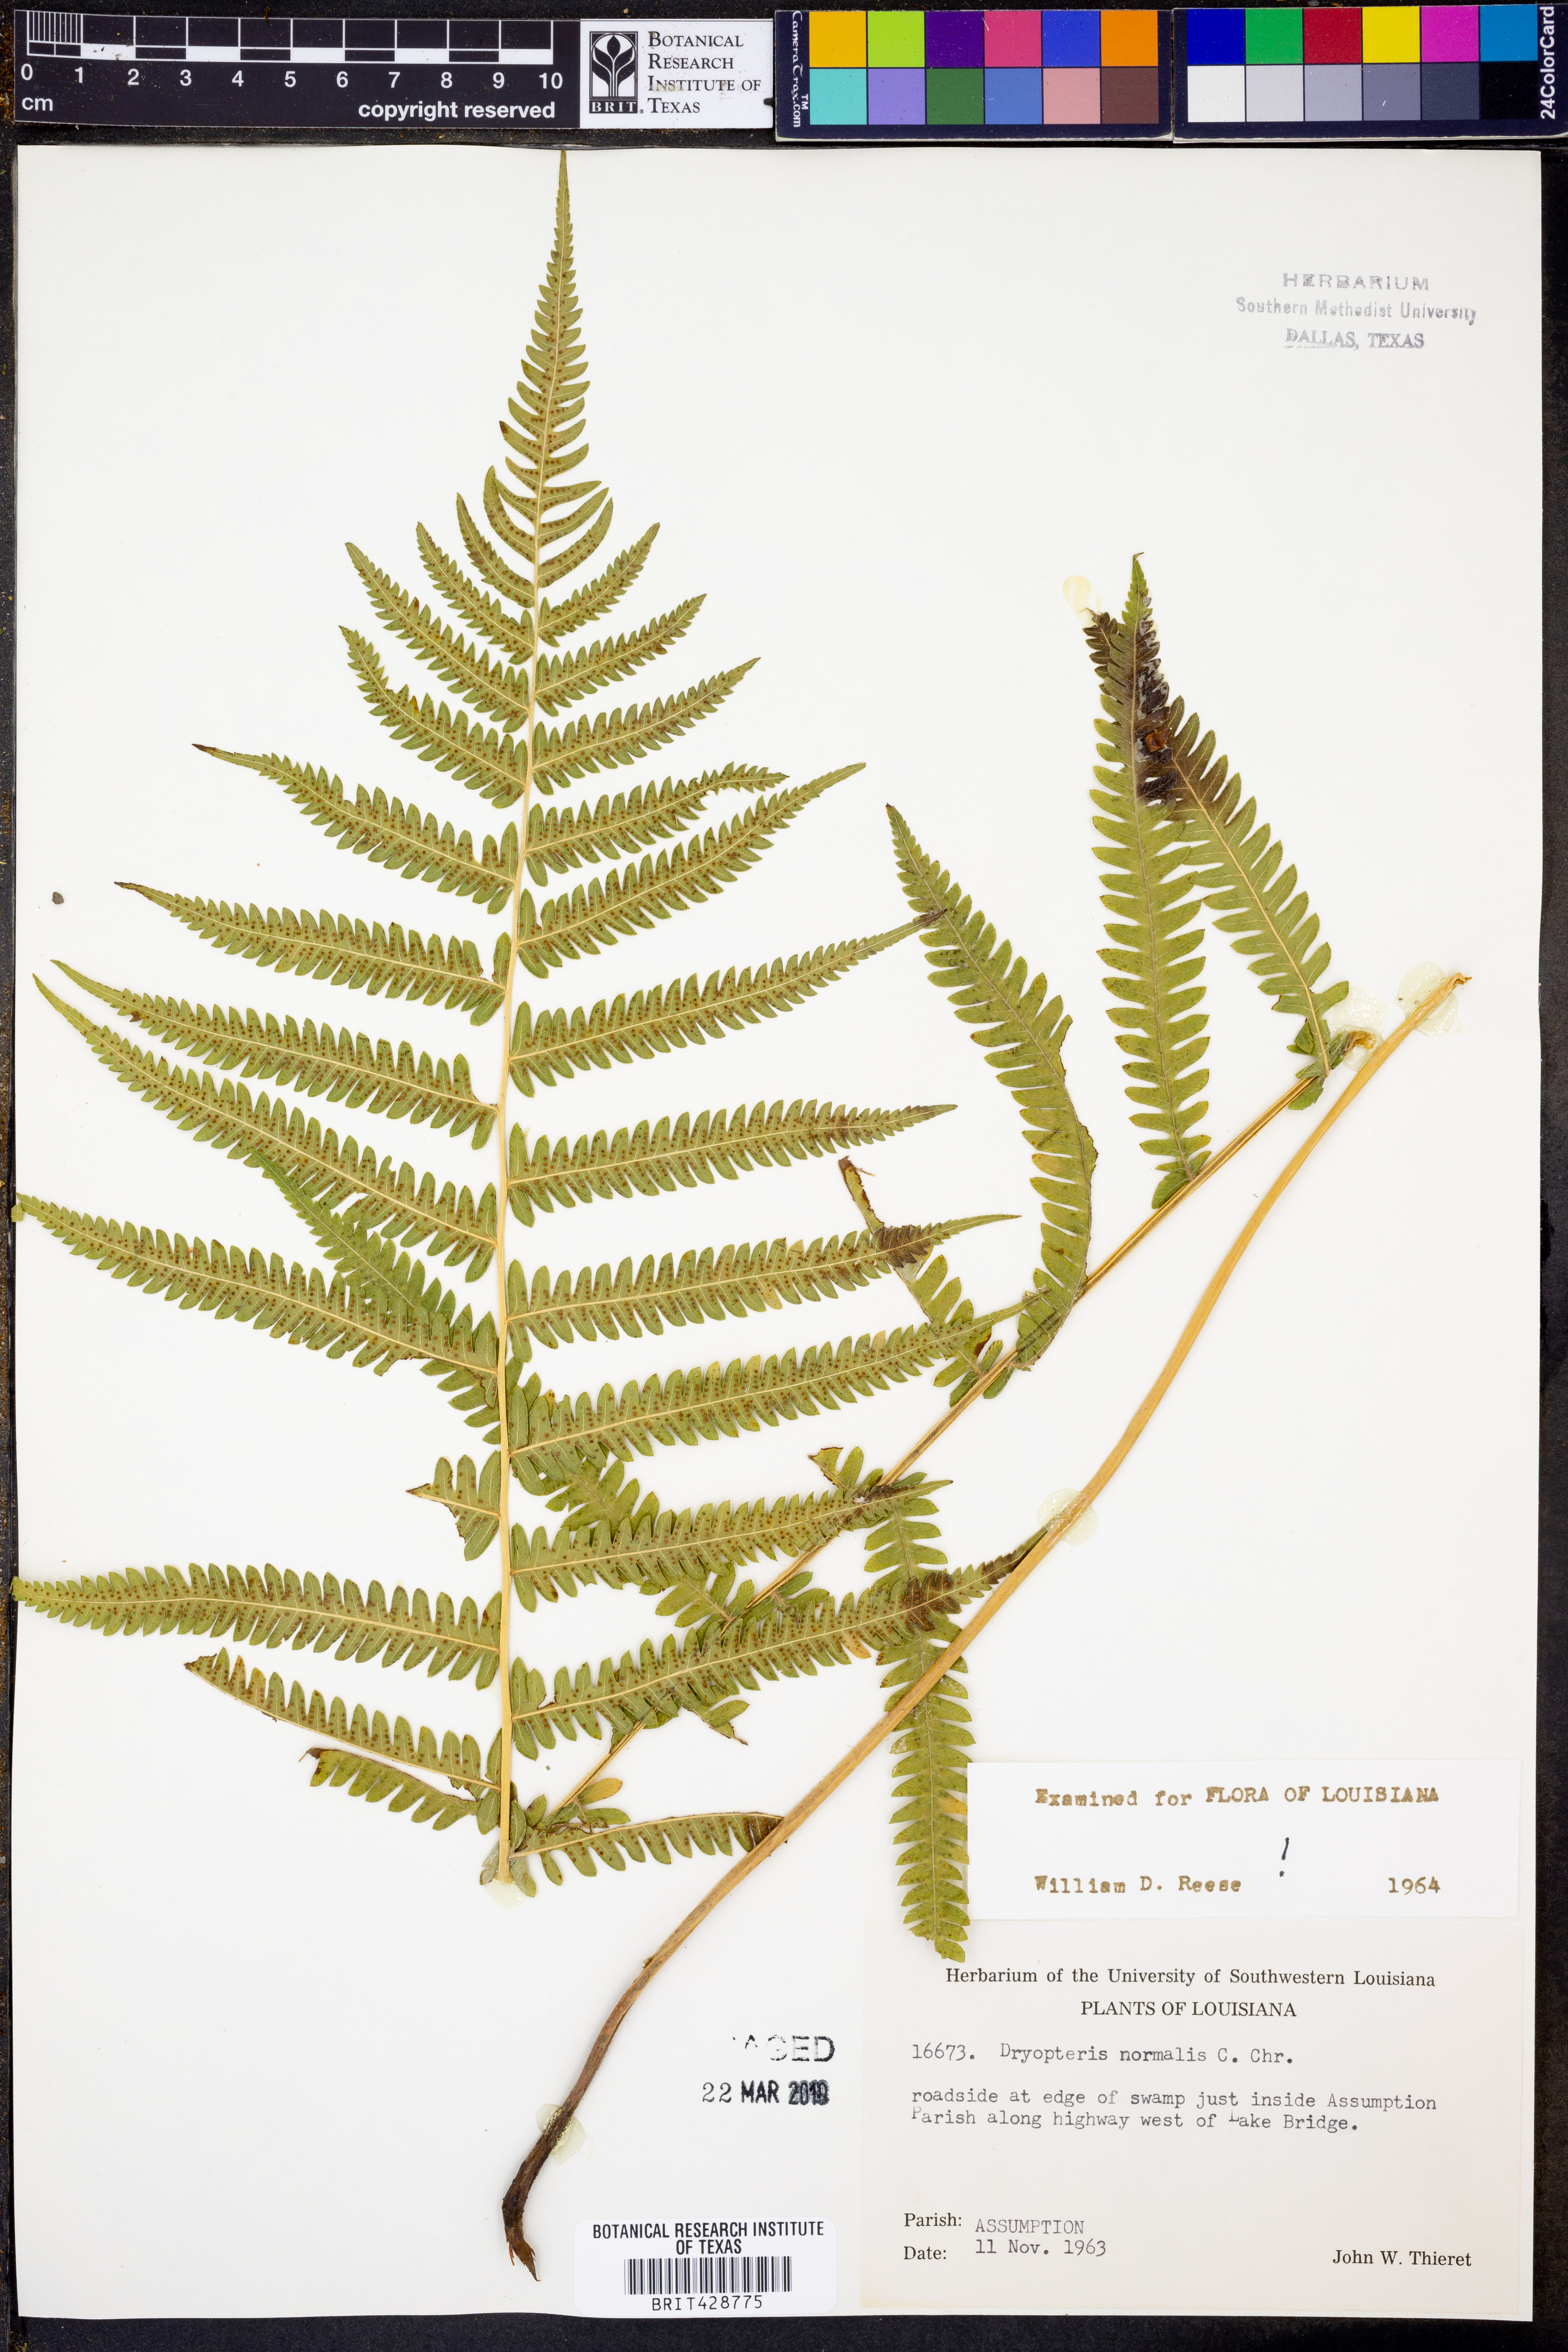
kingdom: Plantae
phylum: Tracheophyta
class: Polypodiopsida
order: Polypodiales
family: Thelypteridaceae
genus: Pelazoneuron
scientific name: Pelazoneuron kunthii
